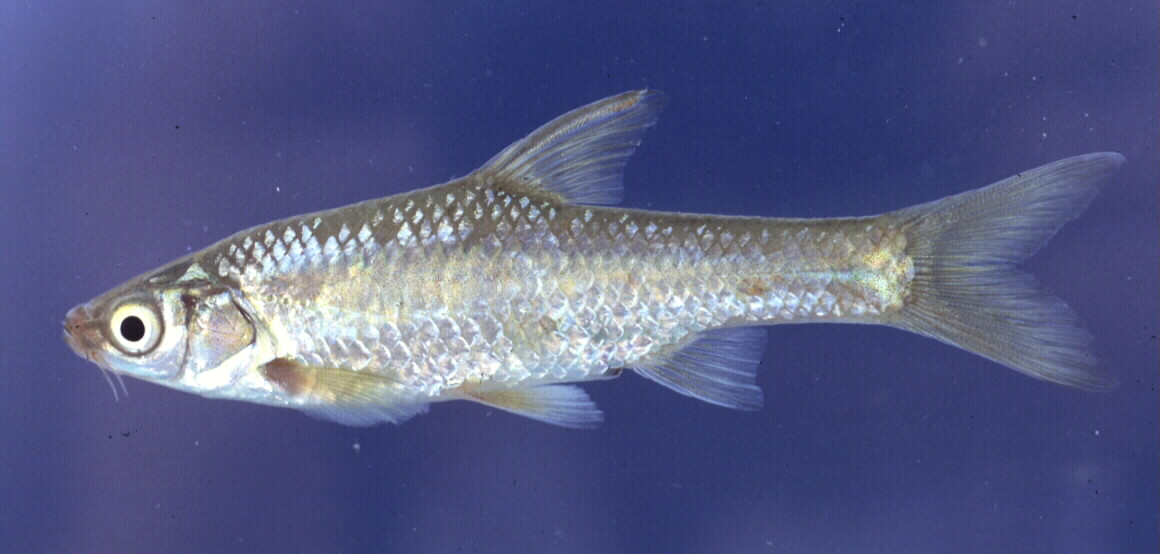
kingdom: Animalia
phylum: Chordata
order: Cypriniformes
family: Cyprinidae
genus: Enteromius
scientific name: Enteromius paludinosus
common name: Straightfin barb
